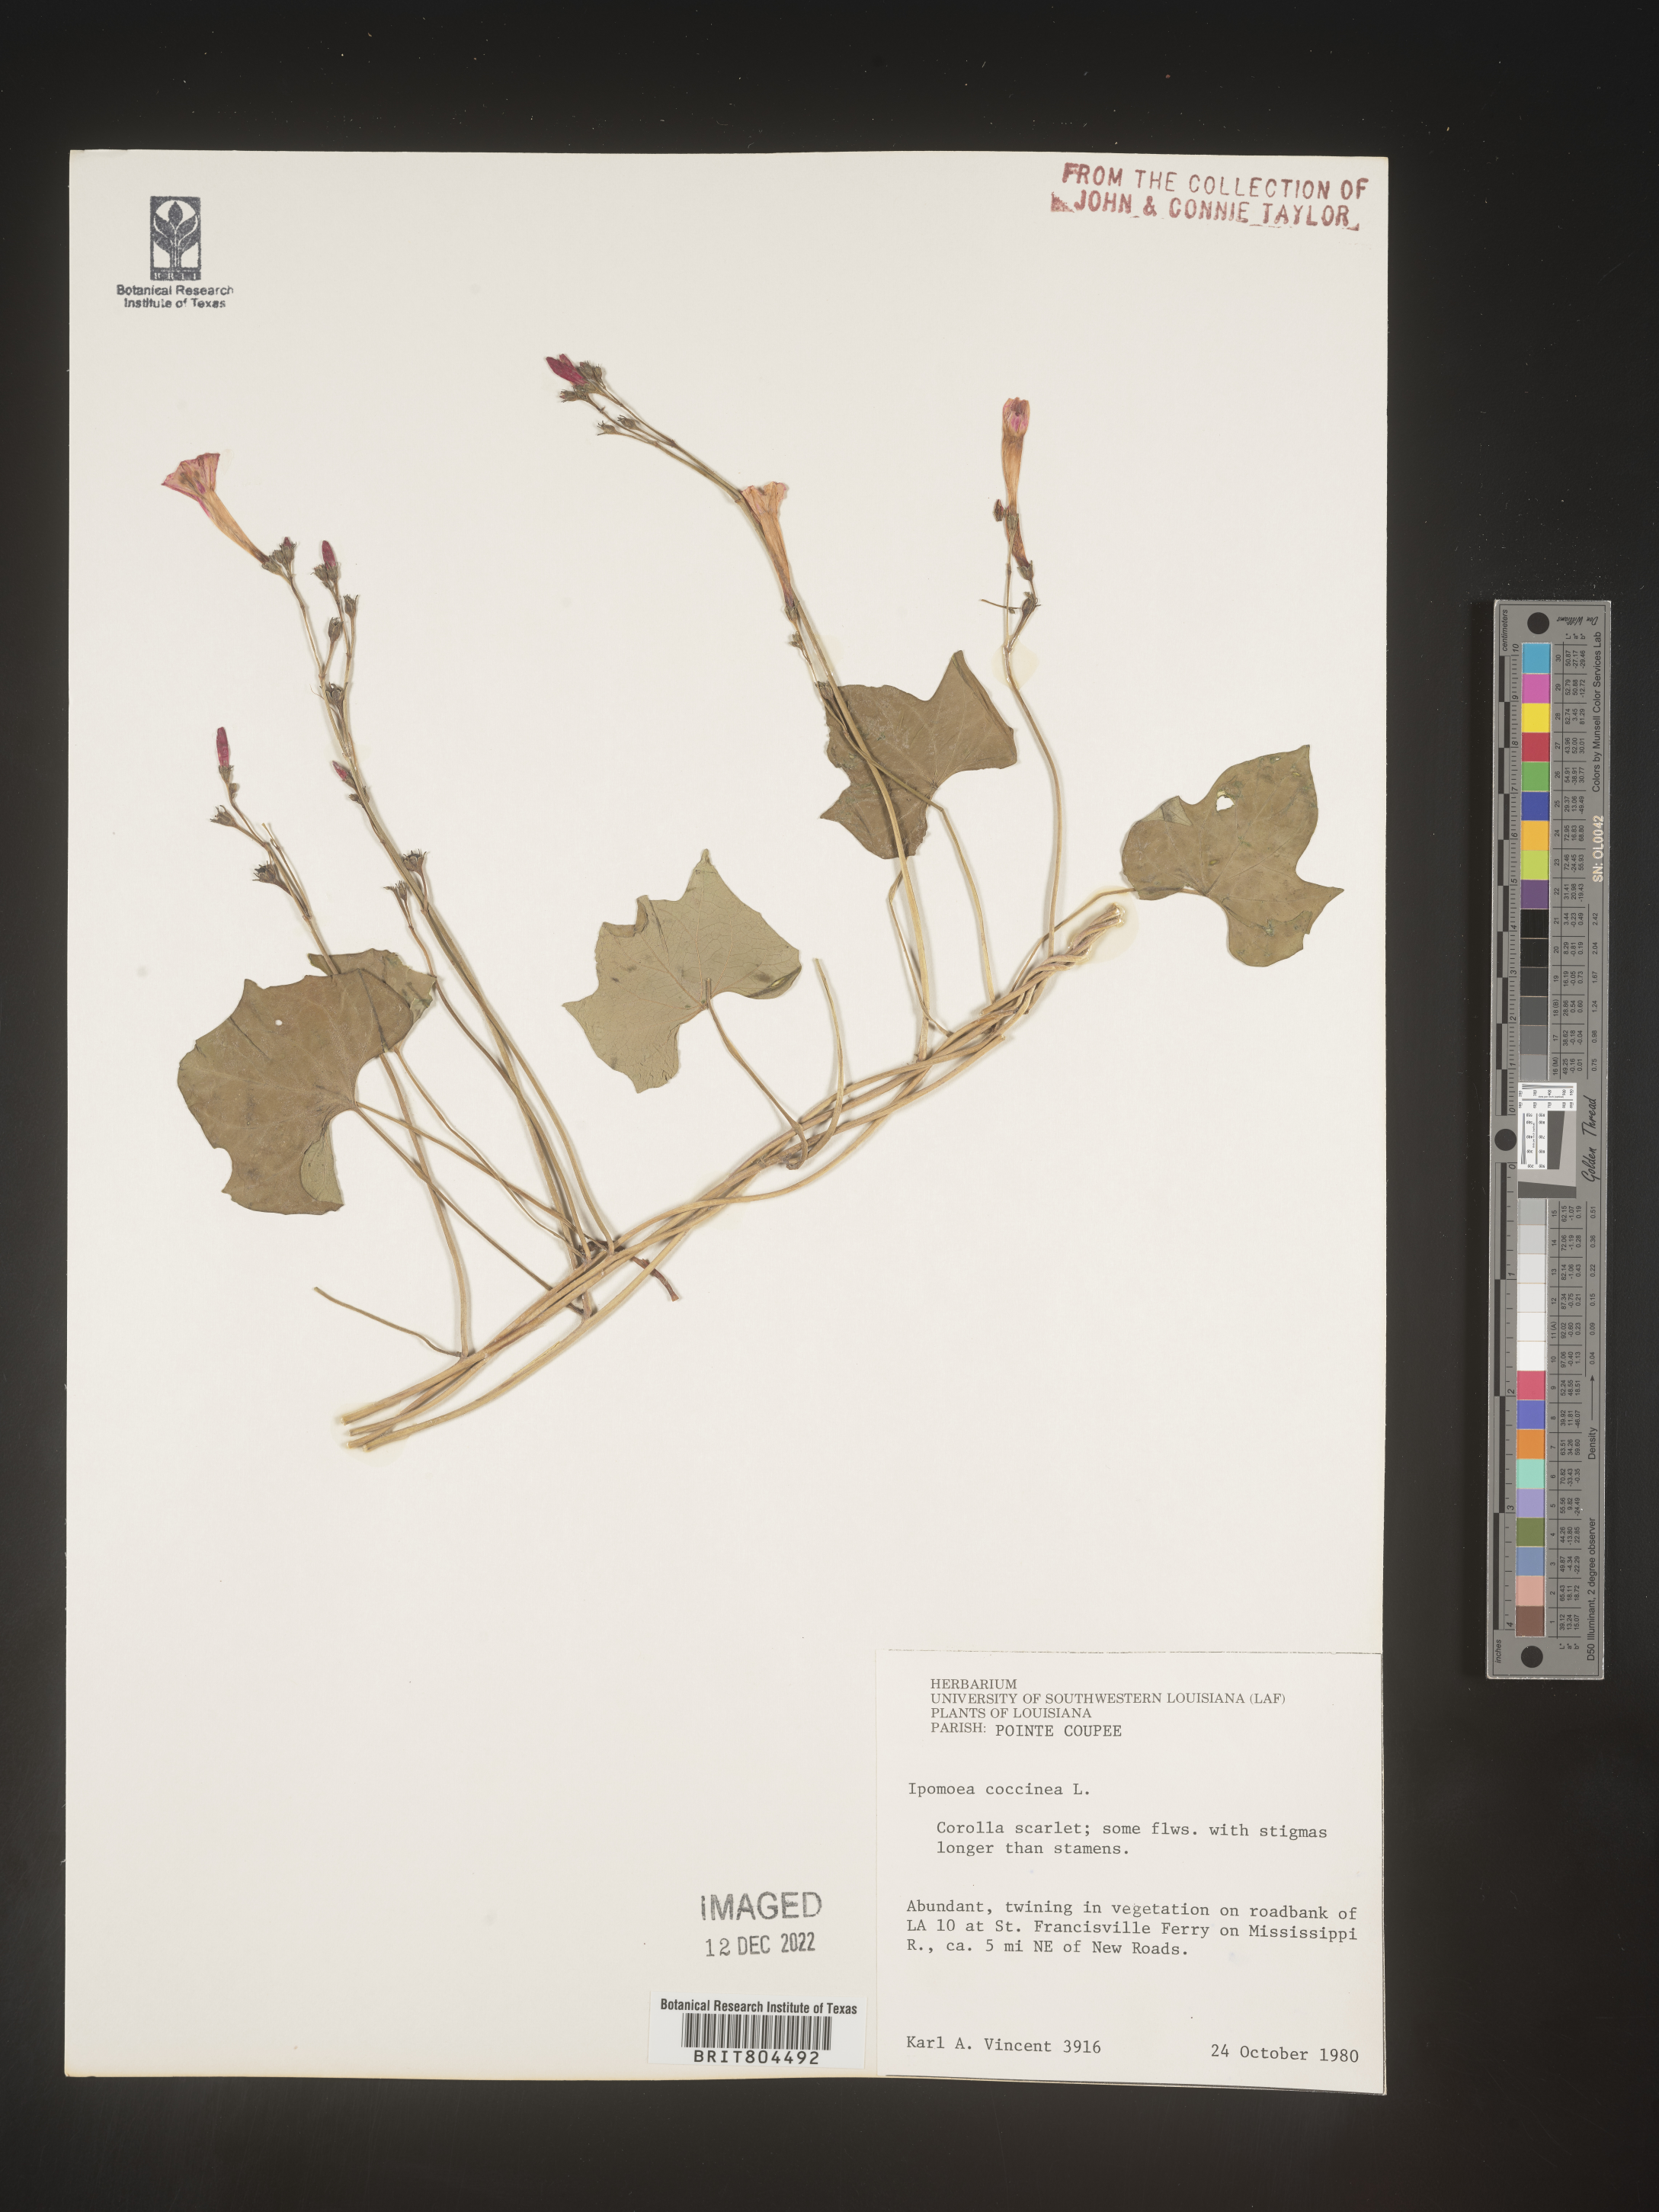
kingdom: Plantae
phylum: Tracheophyta
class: Magnoliopsida
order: Solanales
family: Convolvulaceae
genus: Ipomoea
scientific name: Ipomoea coccinea
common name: Red morning-glory
